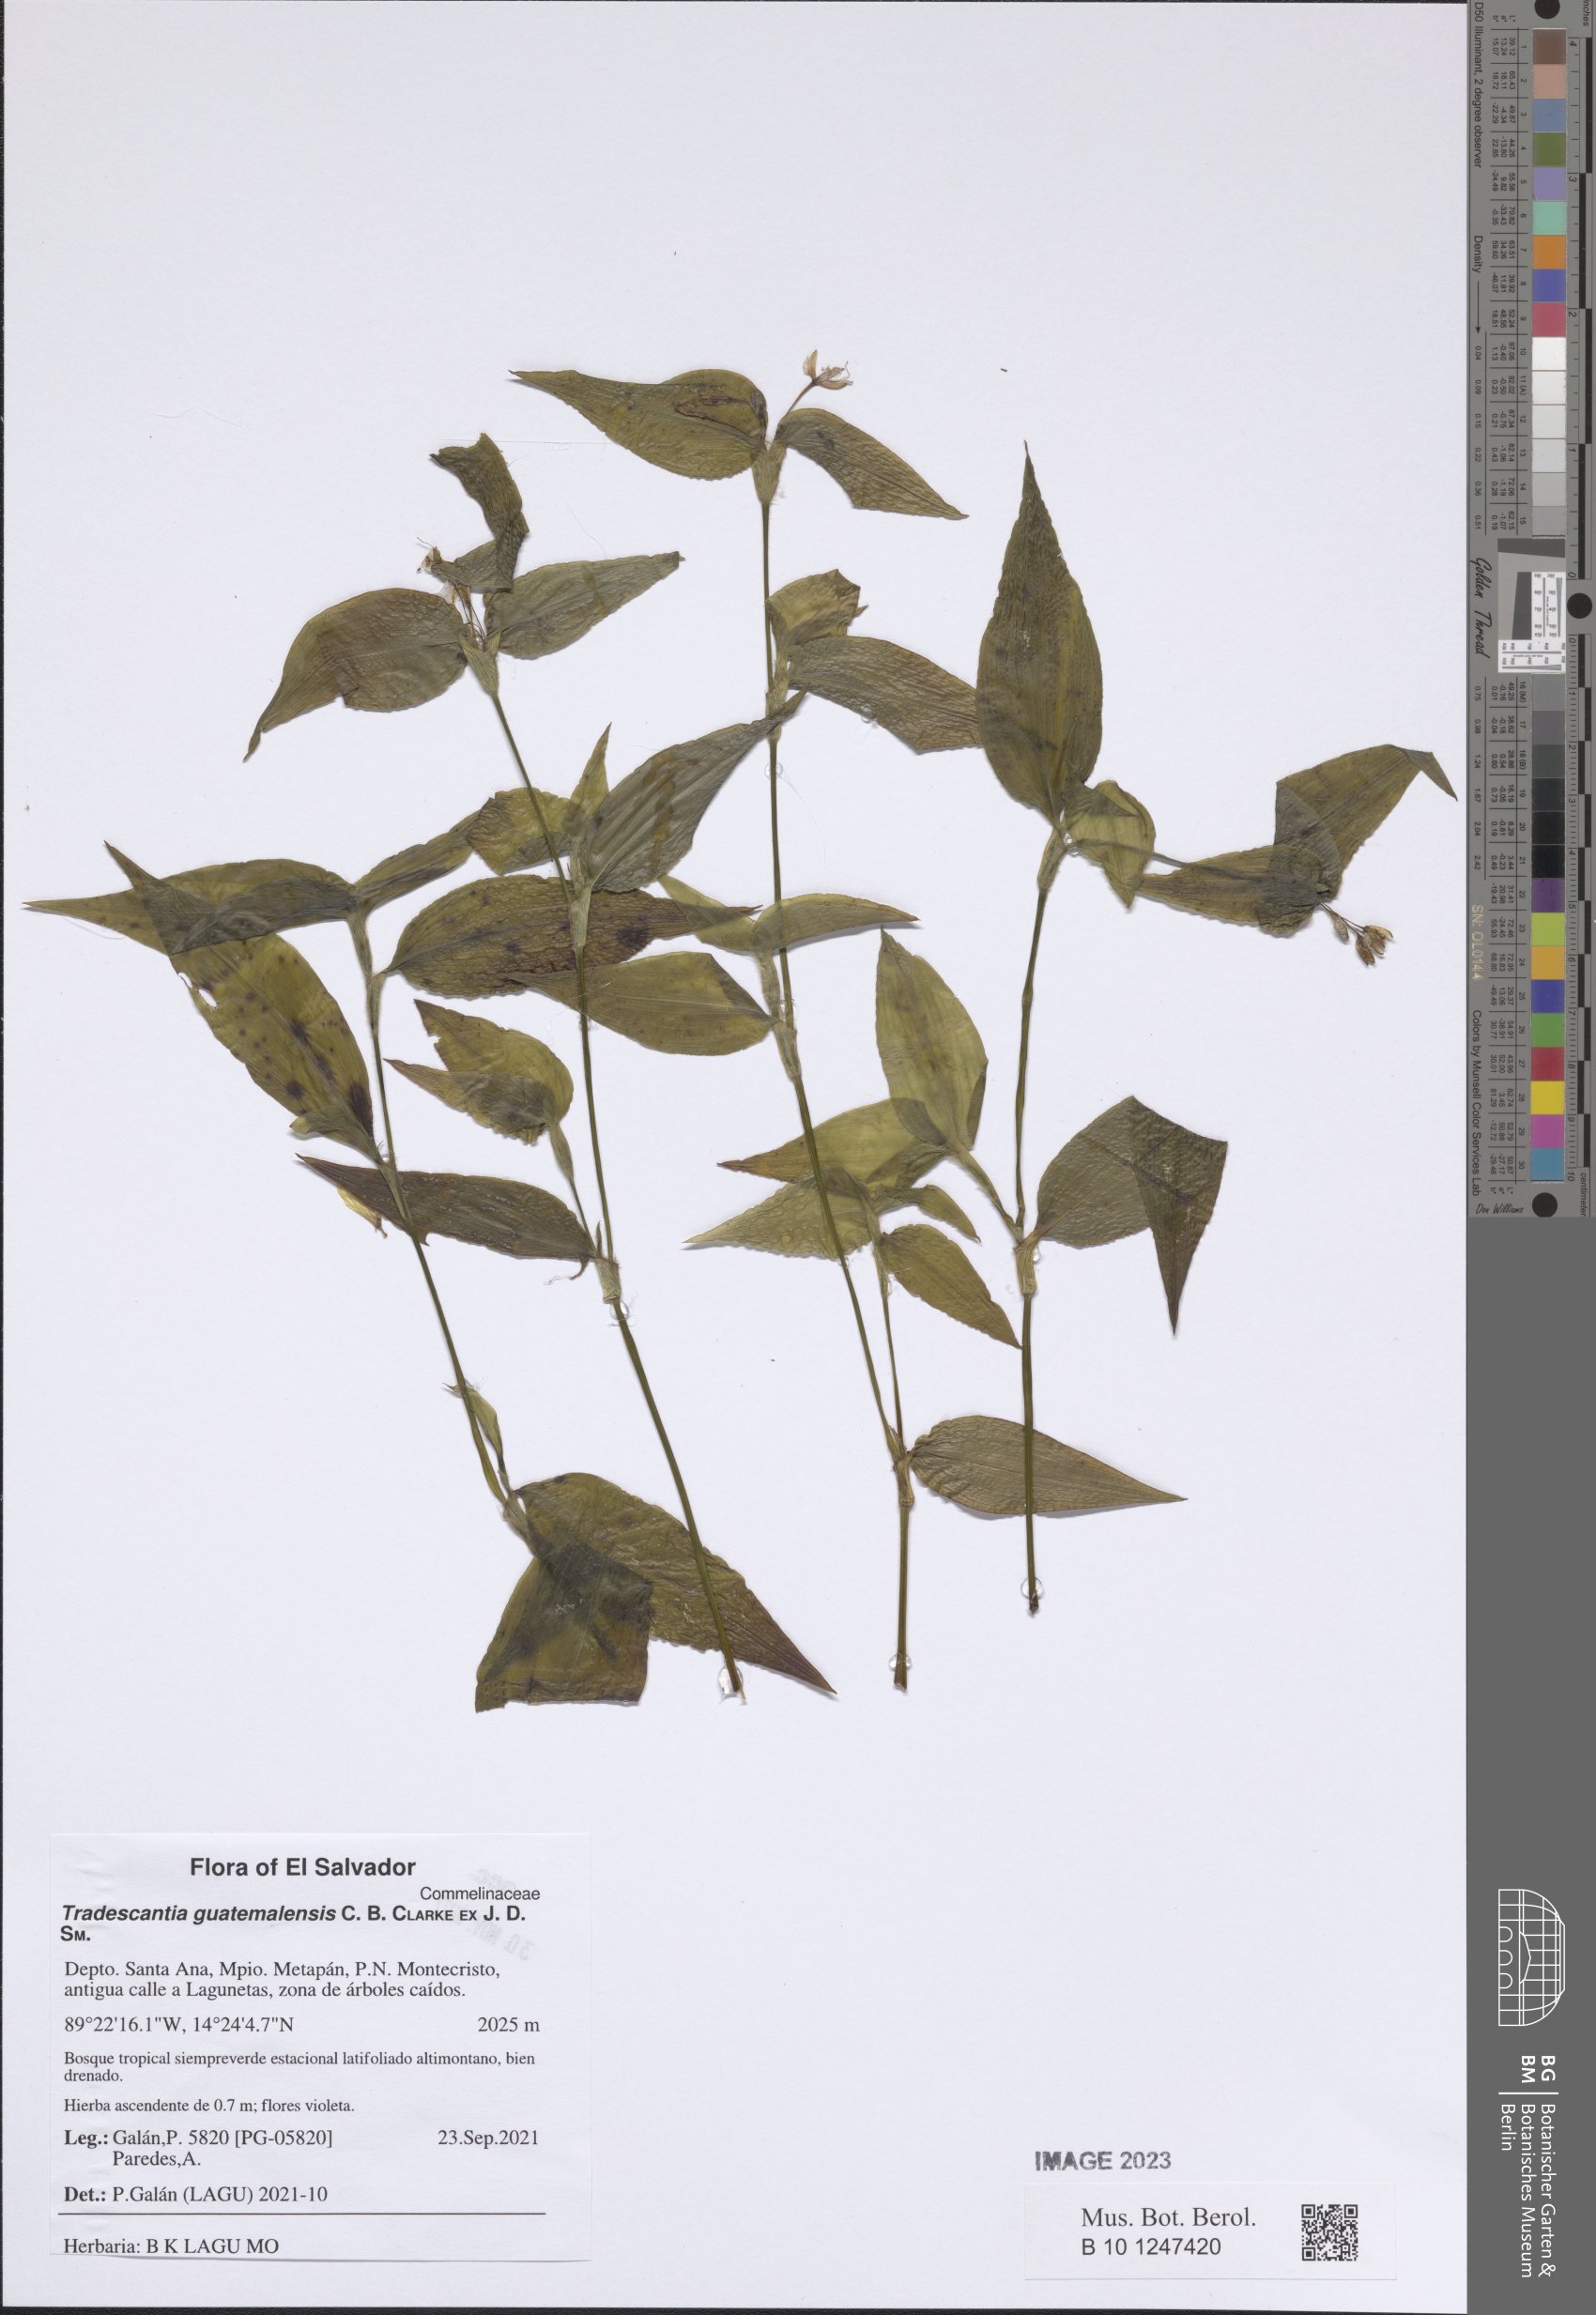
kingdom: Plantae
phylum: Tracheophyta
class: Liliopsida
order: Commelinales
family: Commelinaceae
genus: Elasis
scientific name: Elasis guatemalensis
